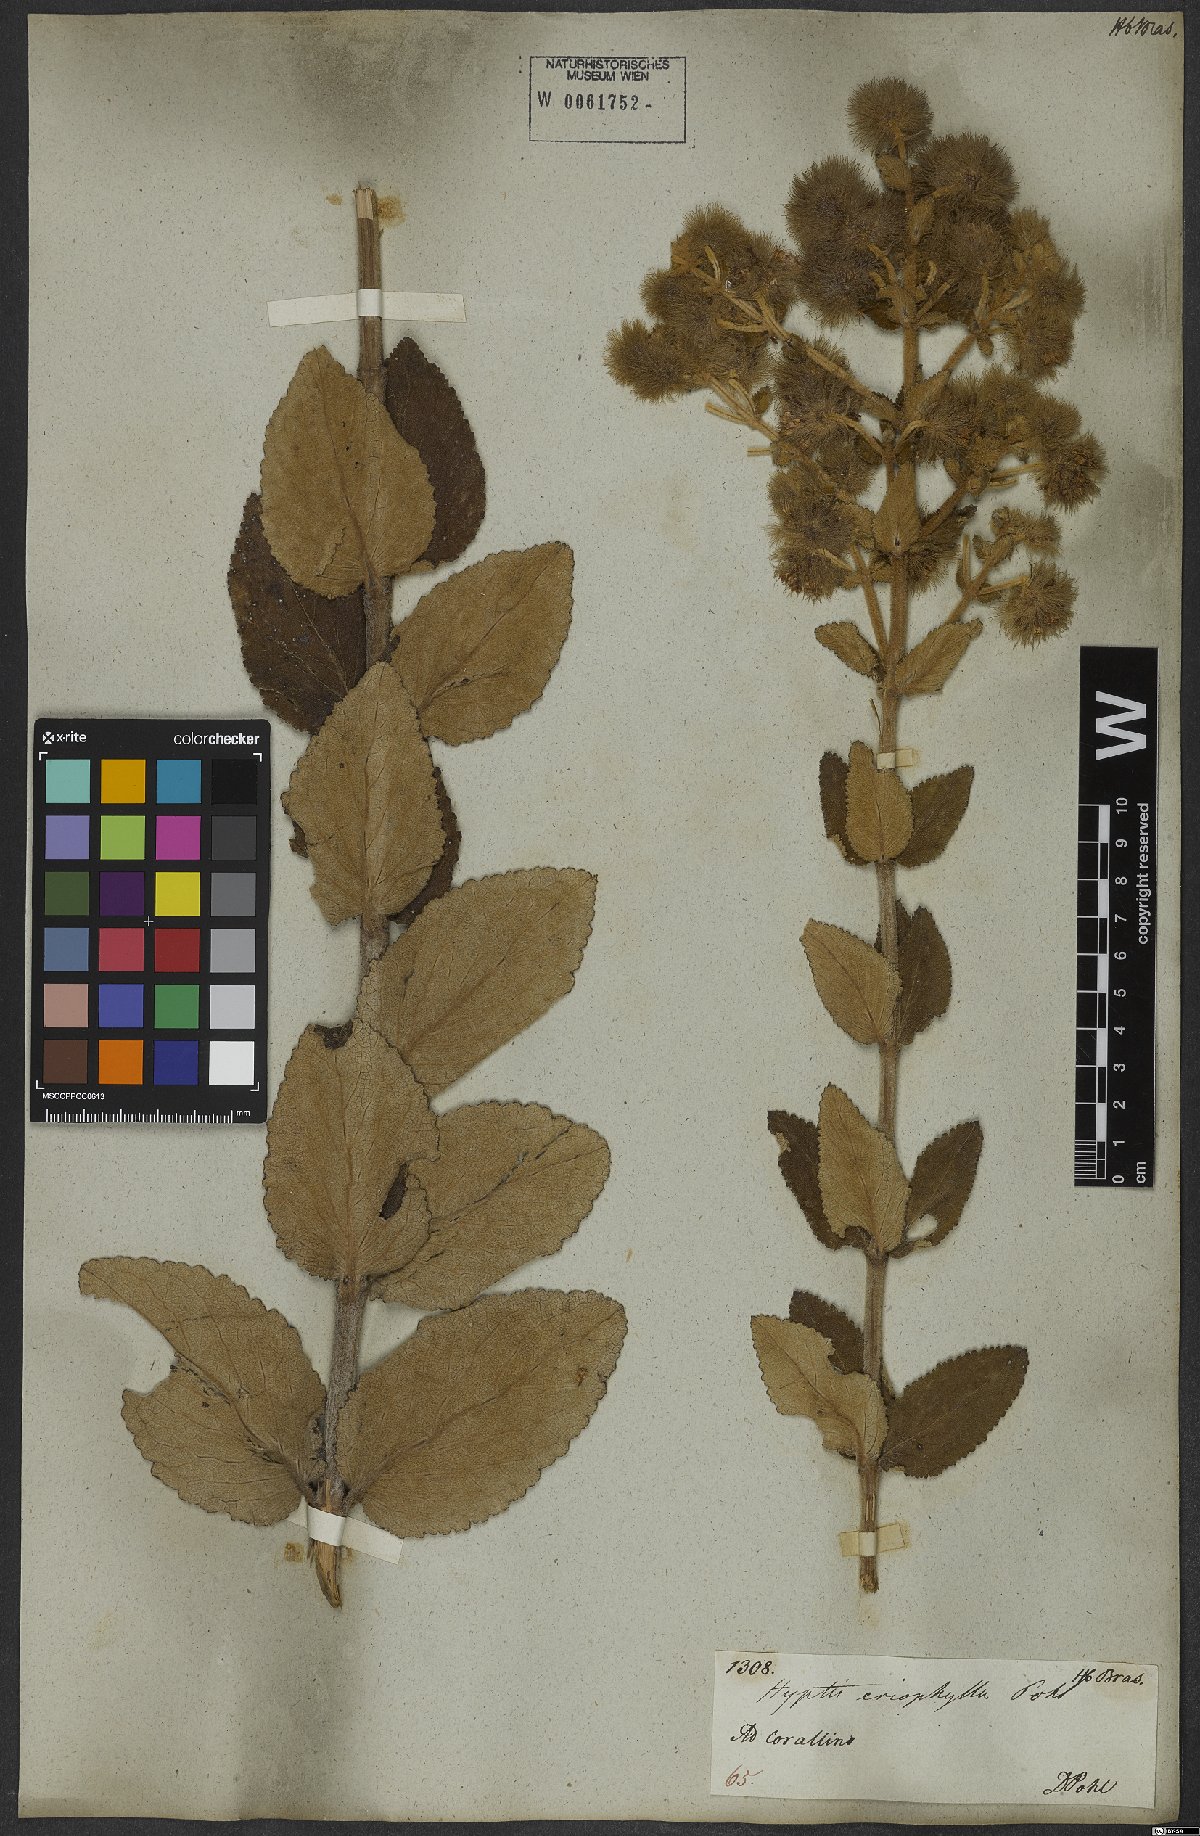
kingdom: Plantae
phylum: Tracheophyta
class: Magnoliopsida
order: Lamiales
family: Lamiaceae
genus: Medusantha
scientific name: Medusantha eriophylla
